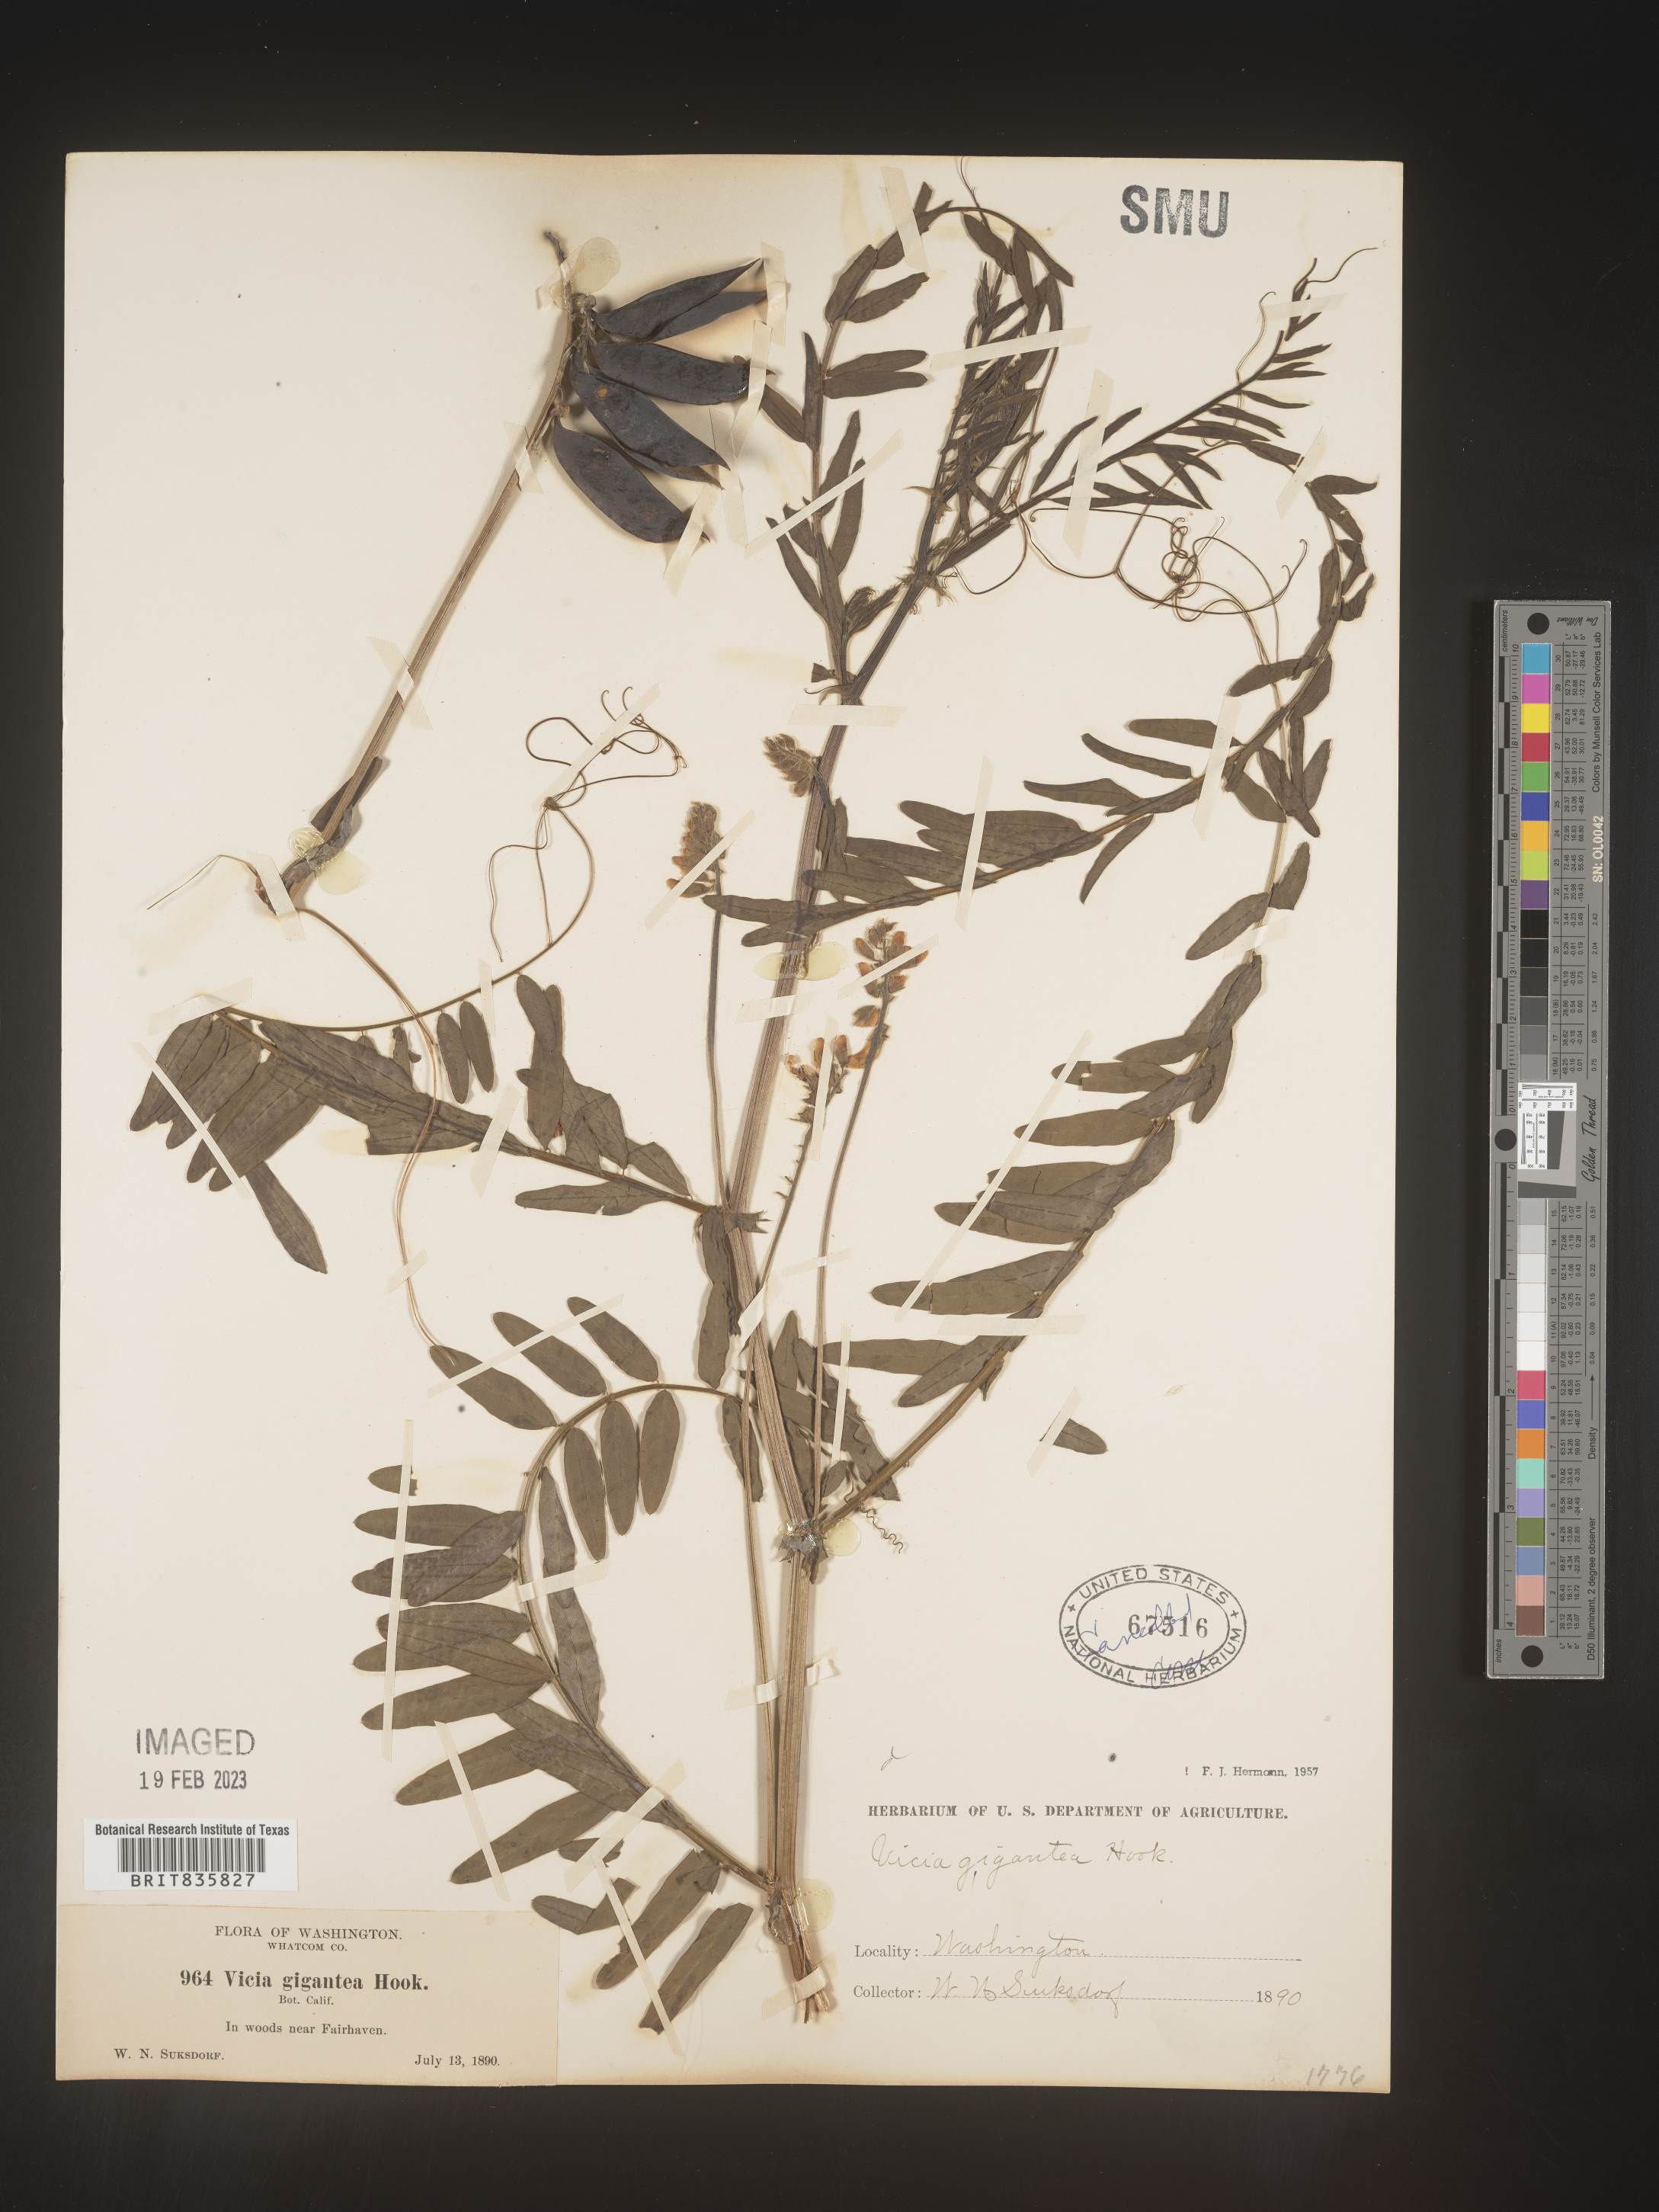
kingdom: Plantae
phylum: Tracheophyta
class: Magnoliopsida
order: Fabales
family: Fabaceae
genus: Vicia
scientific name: Vicia
